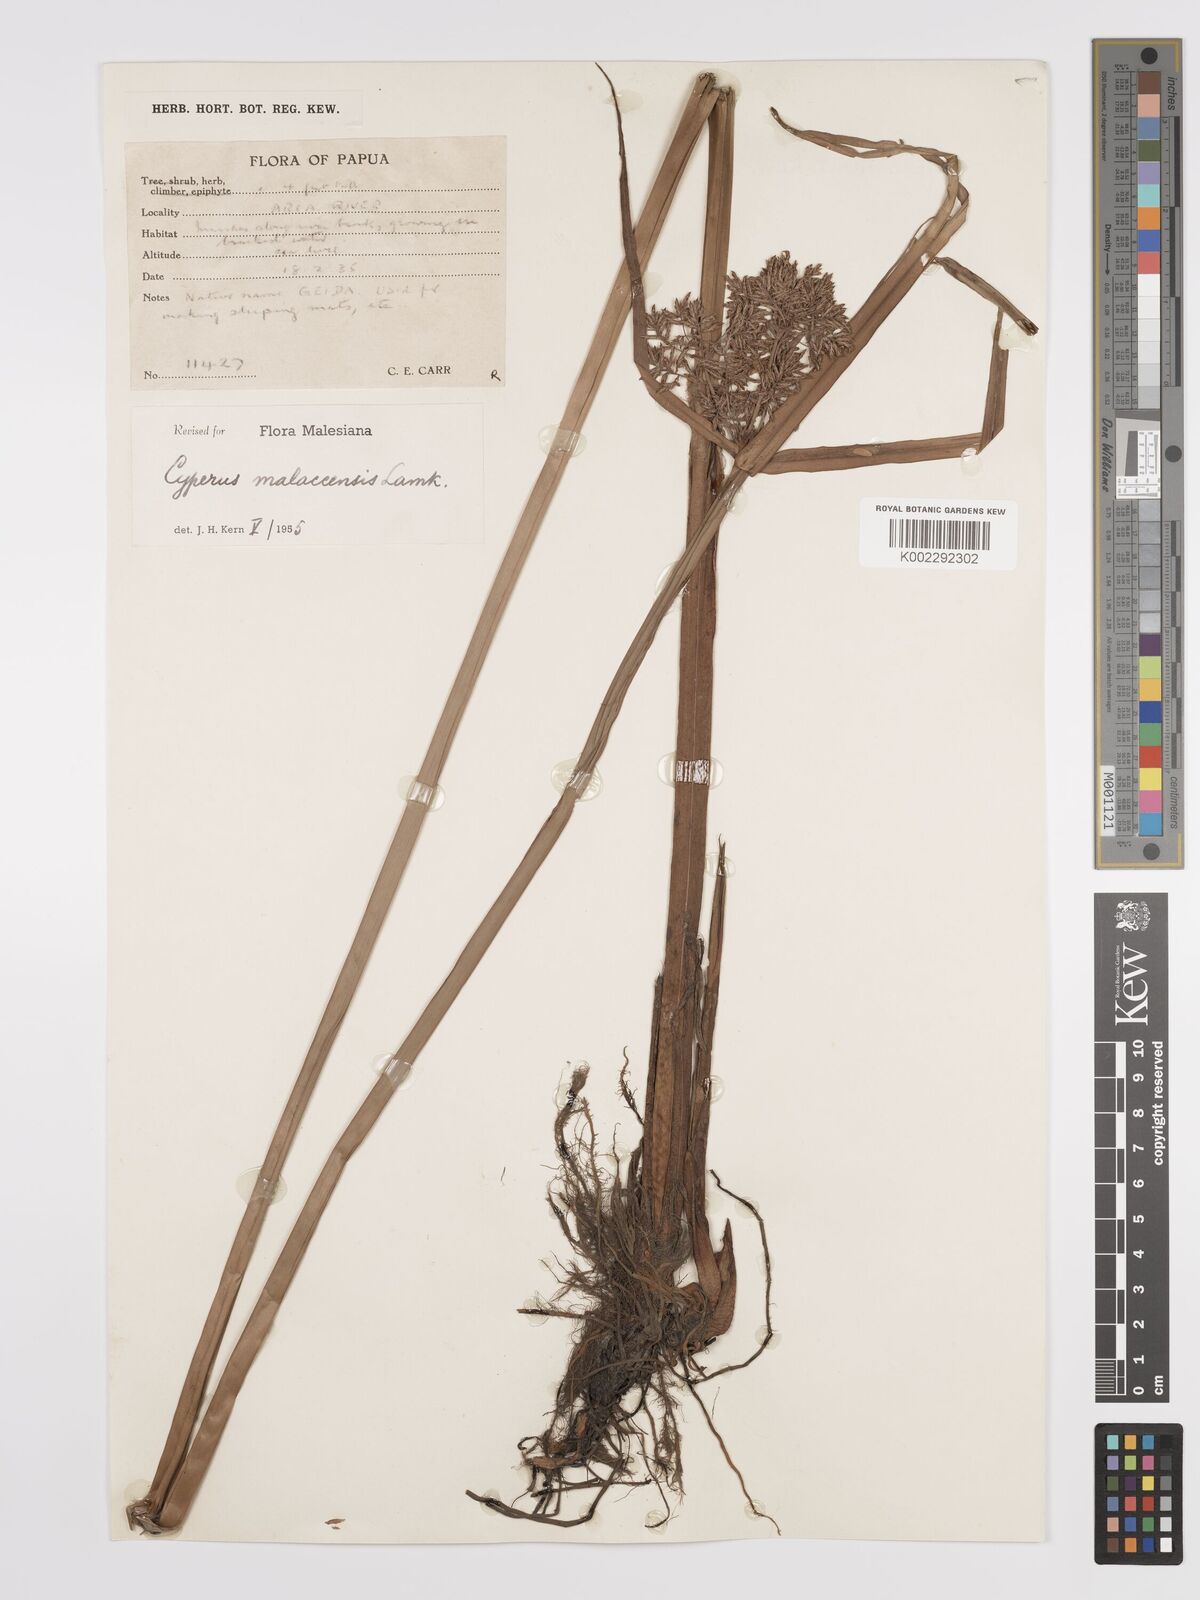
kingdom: Plantae
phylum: Tracheophyta
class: Liliopsida
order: Poales
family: Cyperaceae
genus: Cyperus
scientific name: Cyperus malaccensis
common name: Shichito matgrass
